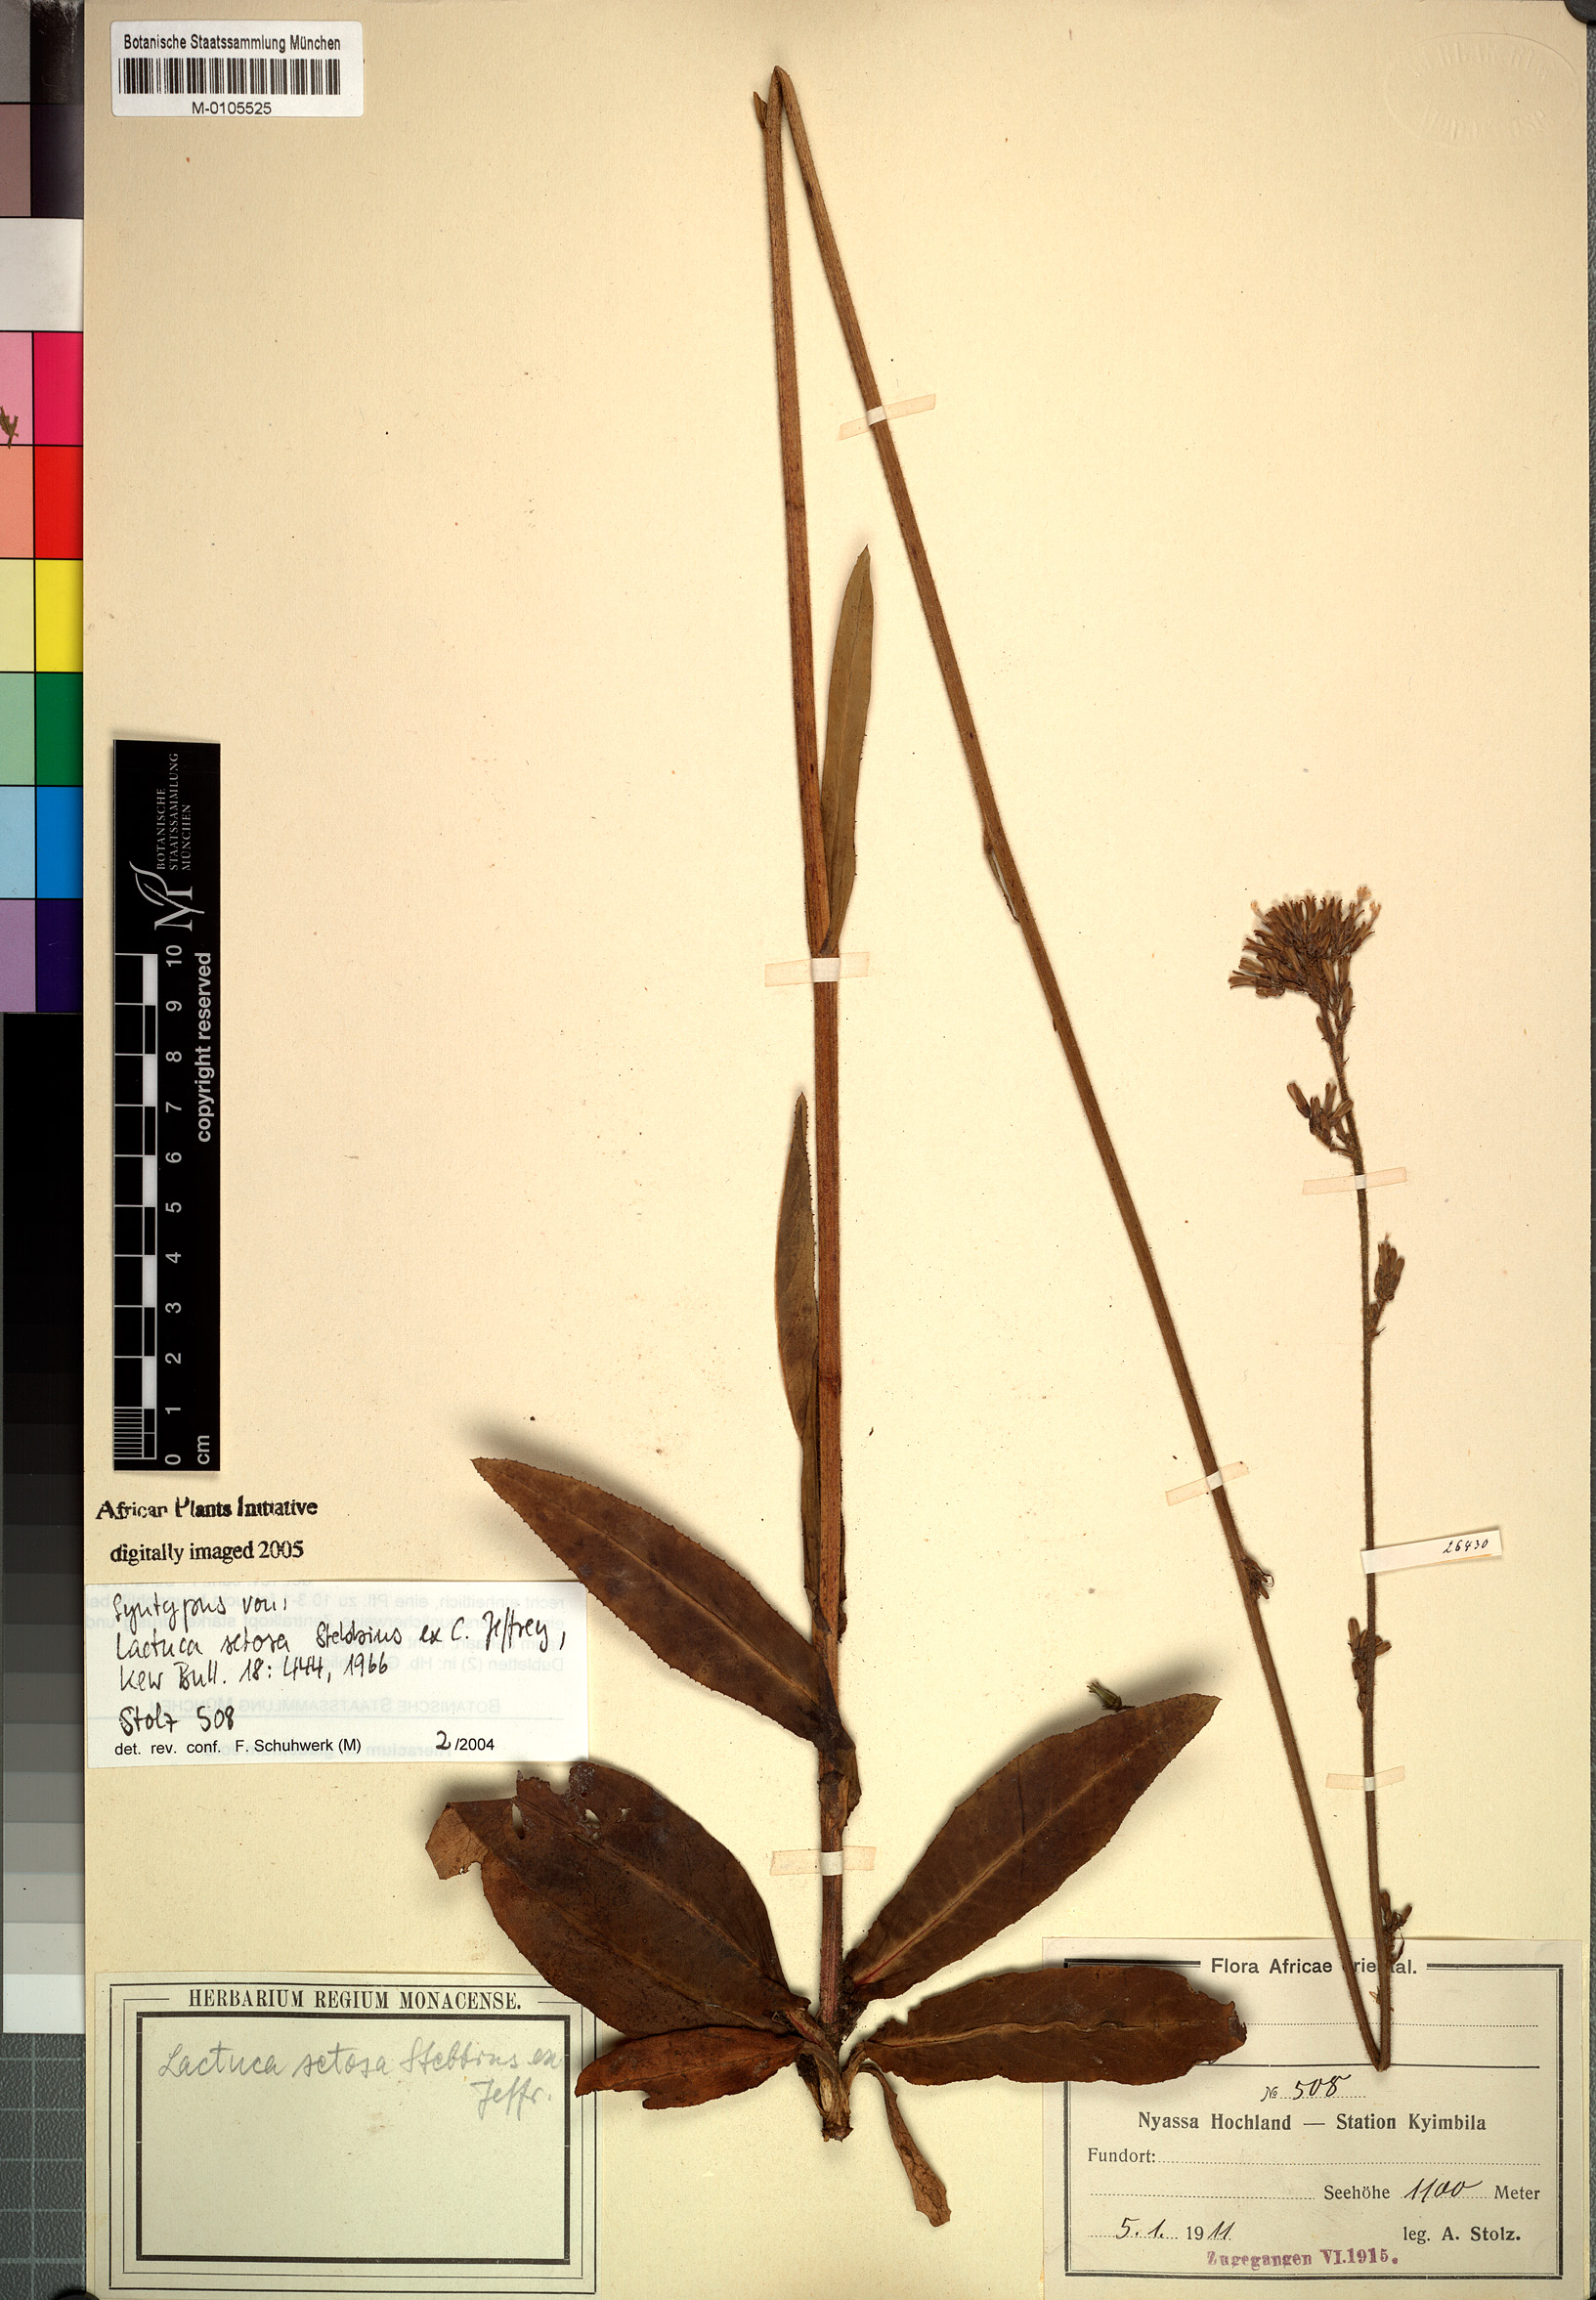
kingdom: Plantae
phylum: Tracheophyta
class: Magnoliopsida
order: Asterales
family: Asteraceae
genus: Lactuca
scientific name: Lactuca setosa
